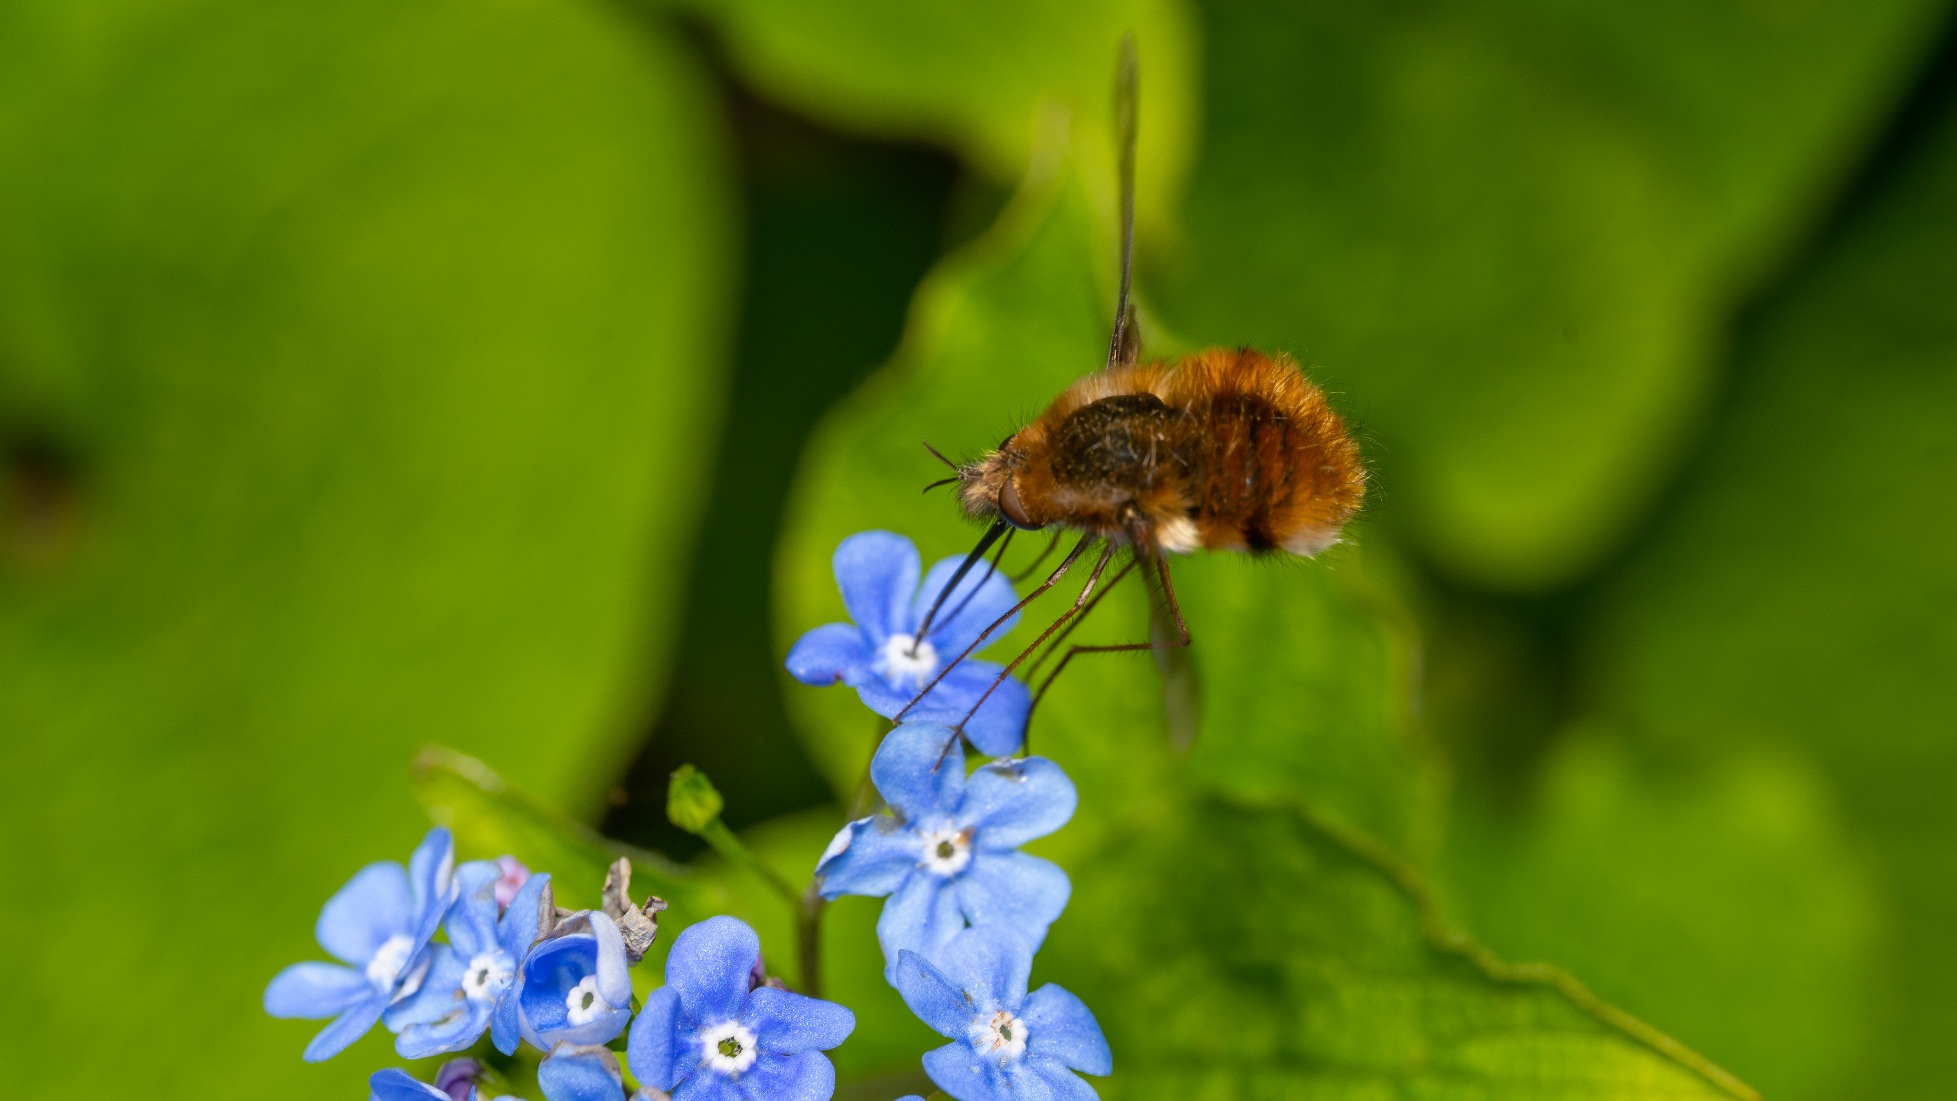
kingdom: Animalia
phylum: Arthropoda
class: Insecta
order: Diptera
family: Bombyliidae
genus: Bombylius
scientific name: Bombylius major
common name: Stor humleflue
